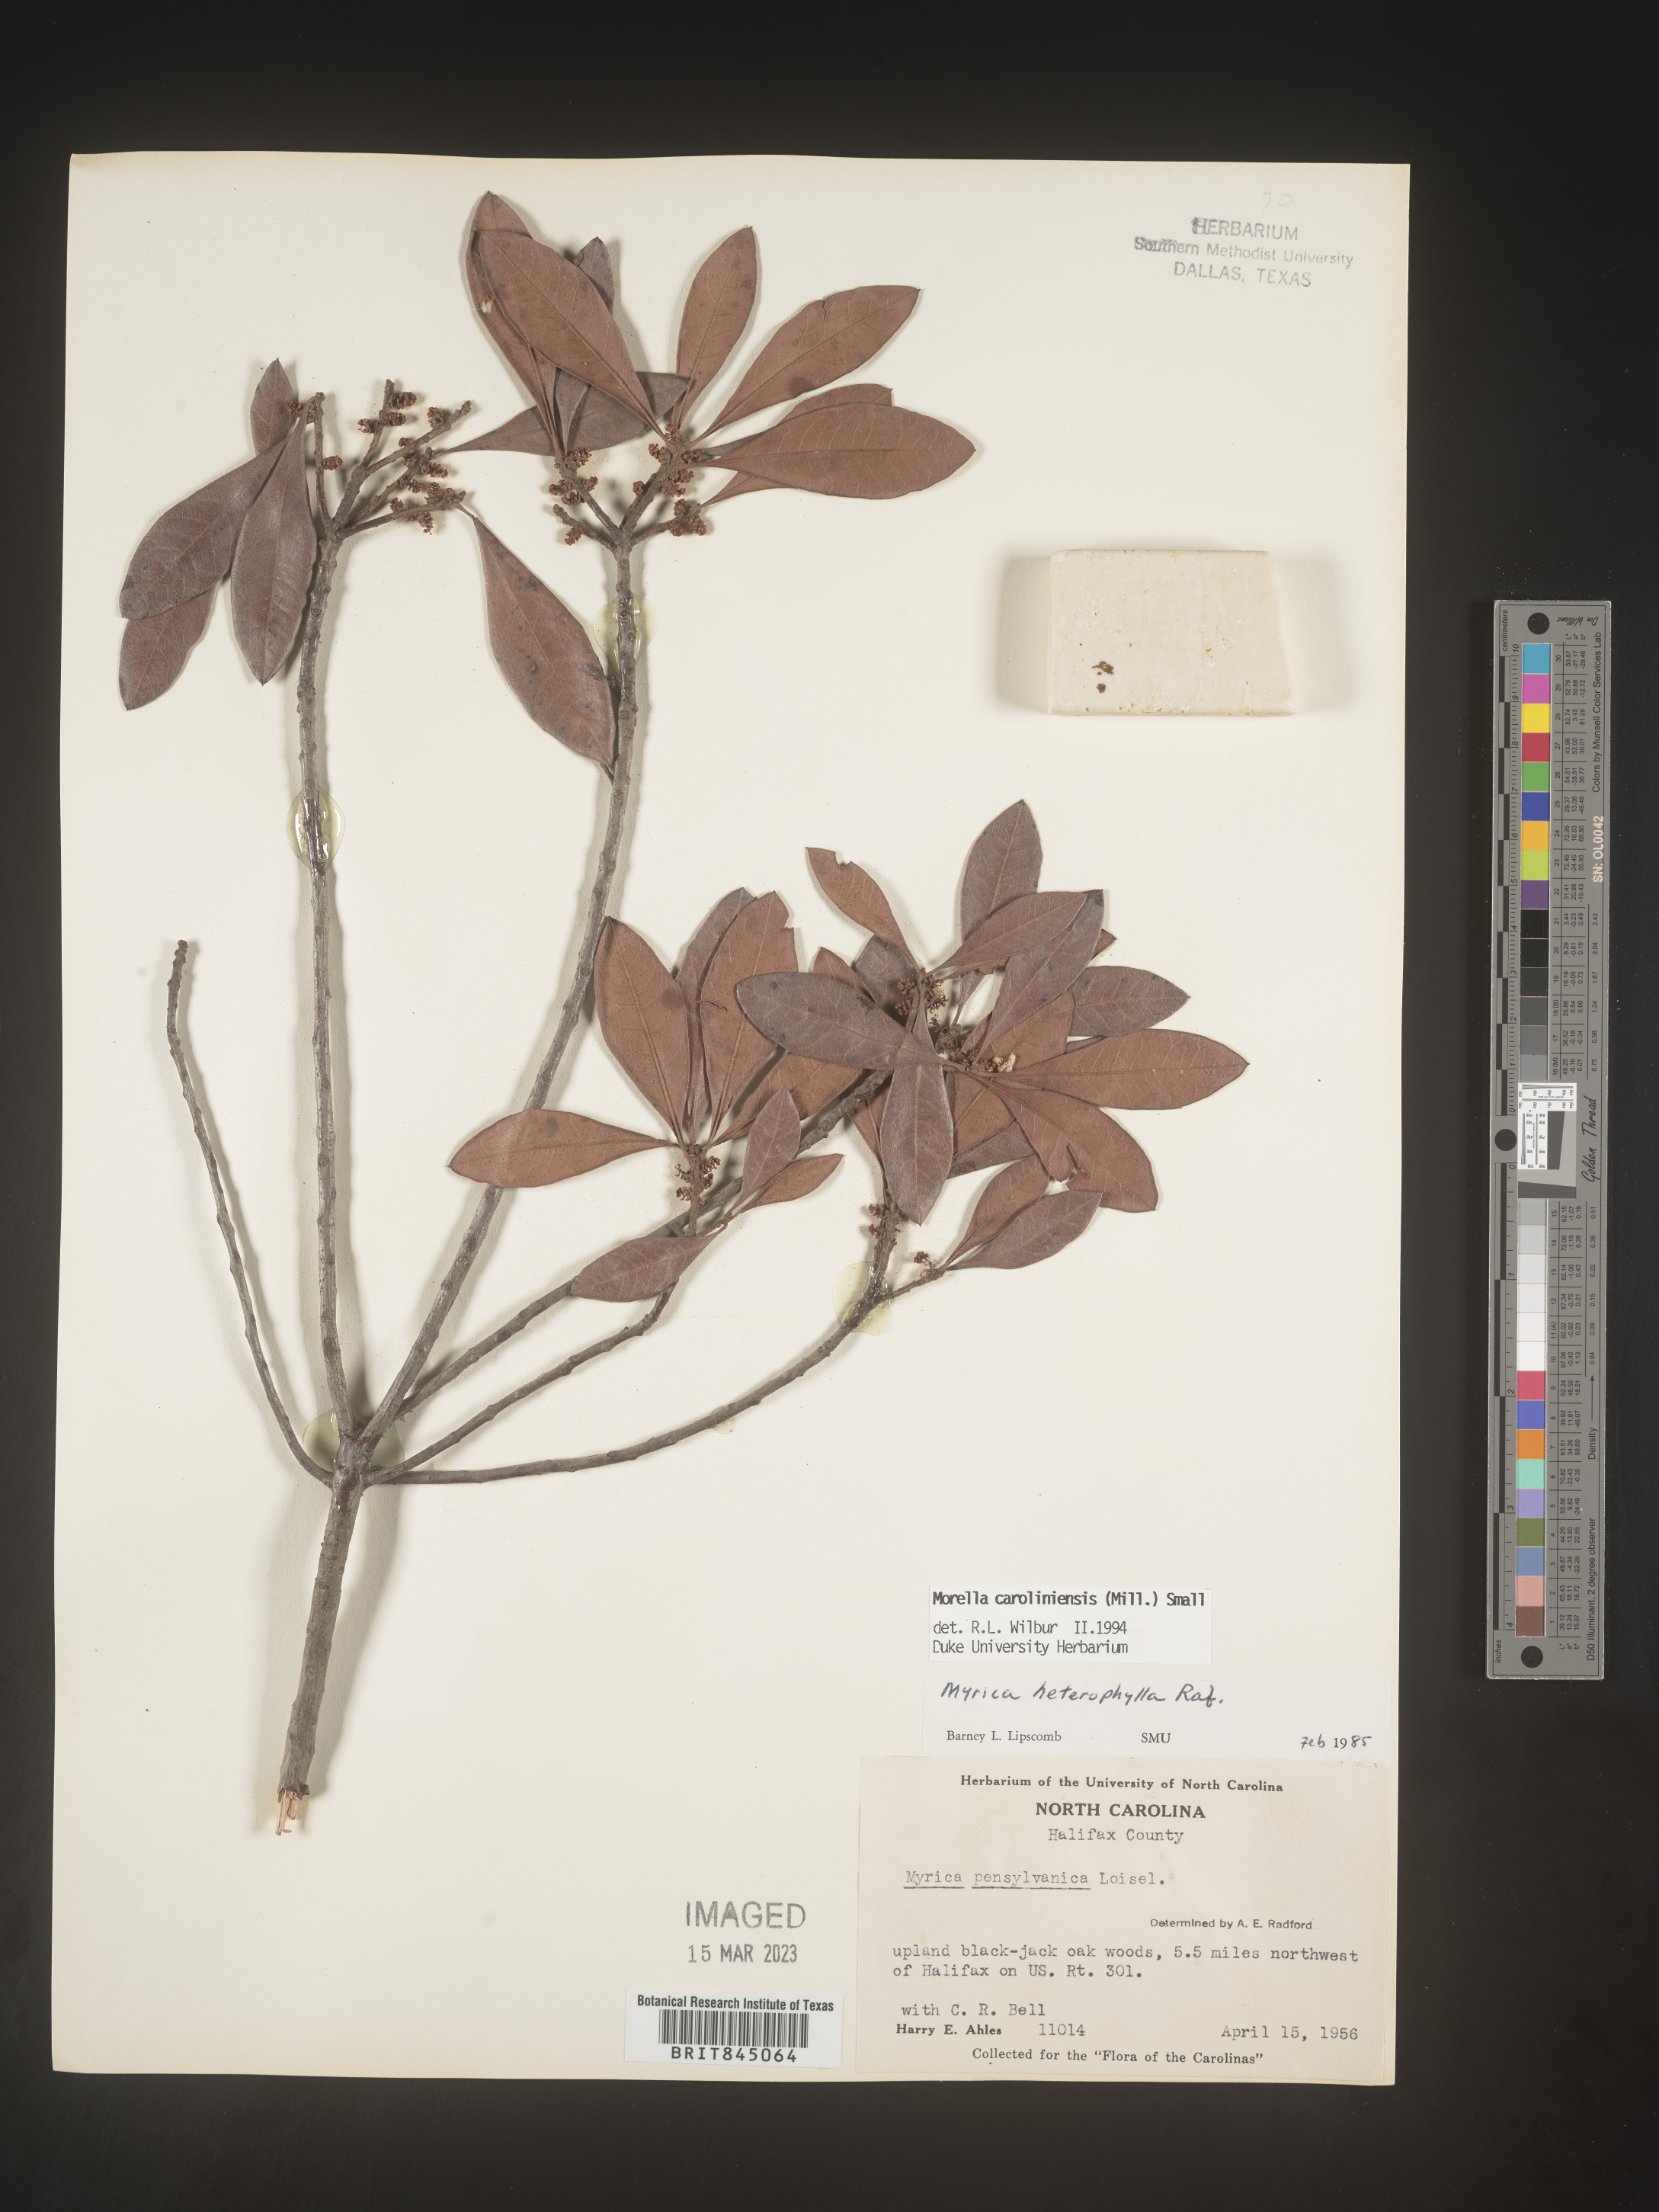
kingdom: Plantae
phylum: Tracheophyta
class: Magnoliopsida
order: Fagales
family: Myricaceae
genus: Morella
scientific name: Morella caroliniensis
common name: Evergreen bayberry
